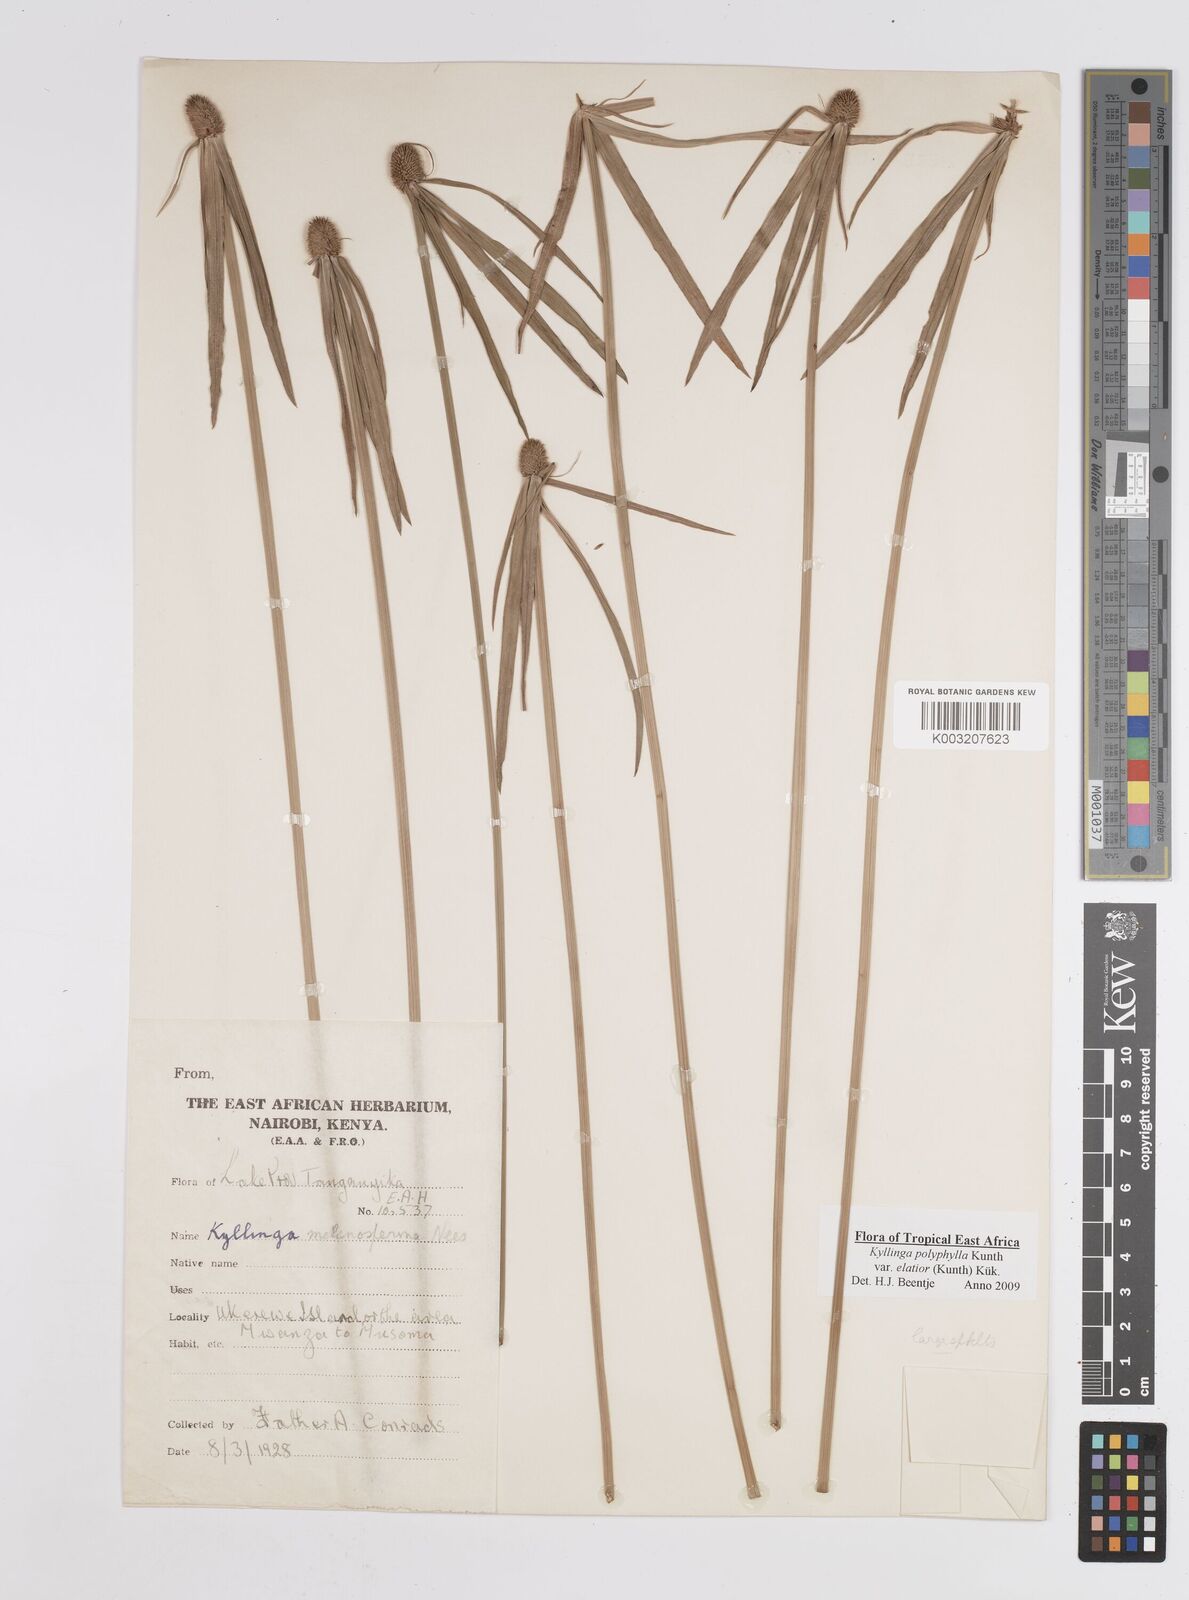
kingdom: Plantae
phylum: Tracheophyta
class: Liliopsida
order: Poales
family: Cyperaceae
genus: Cyperus
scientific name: Cyperus
